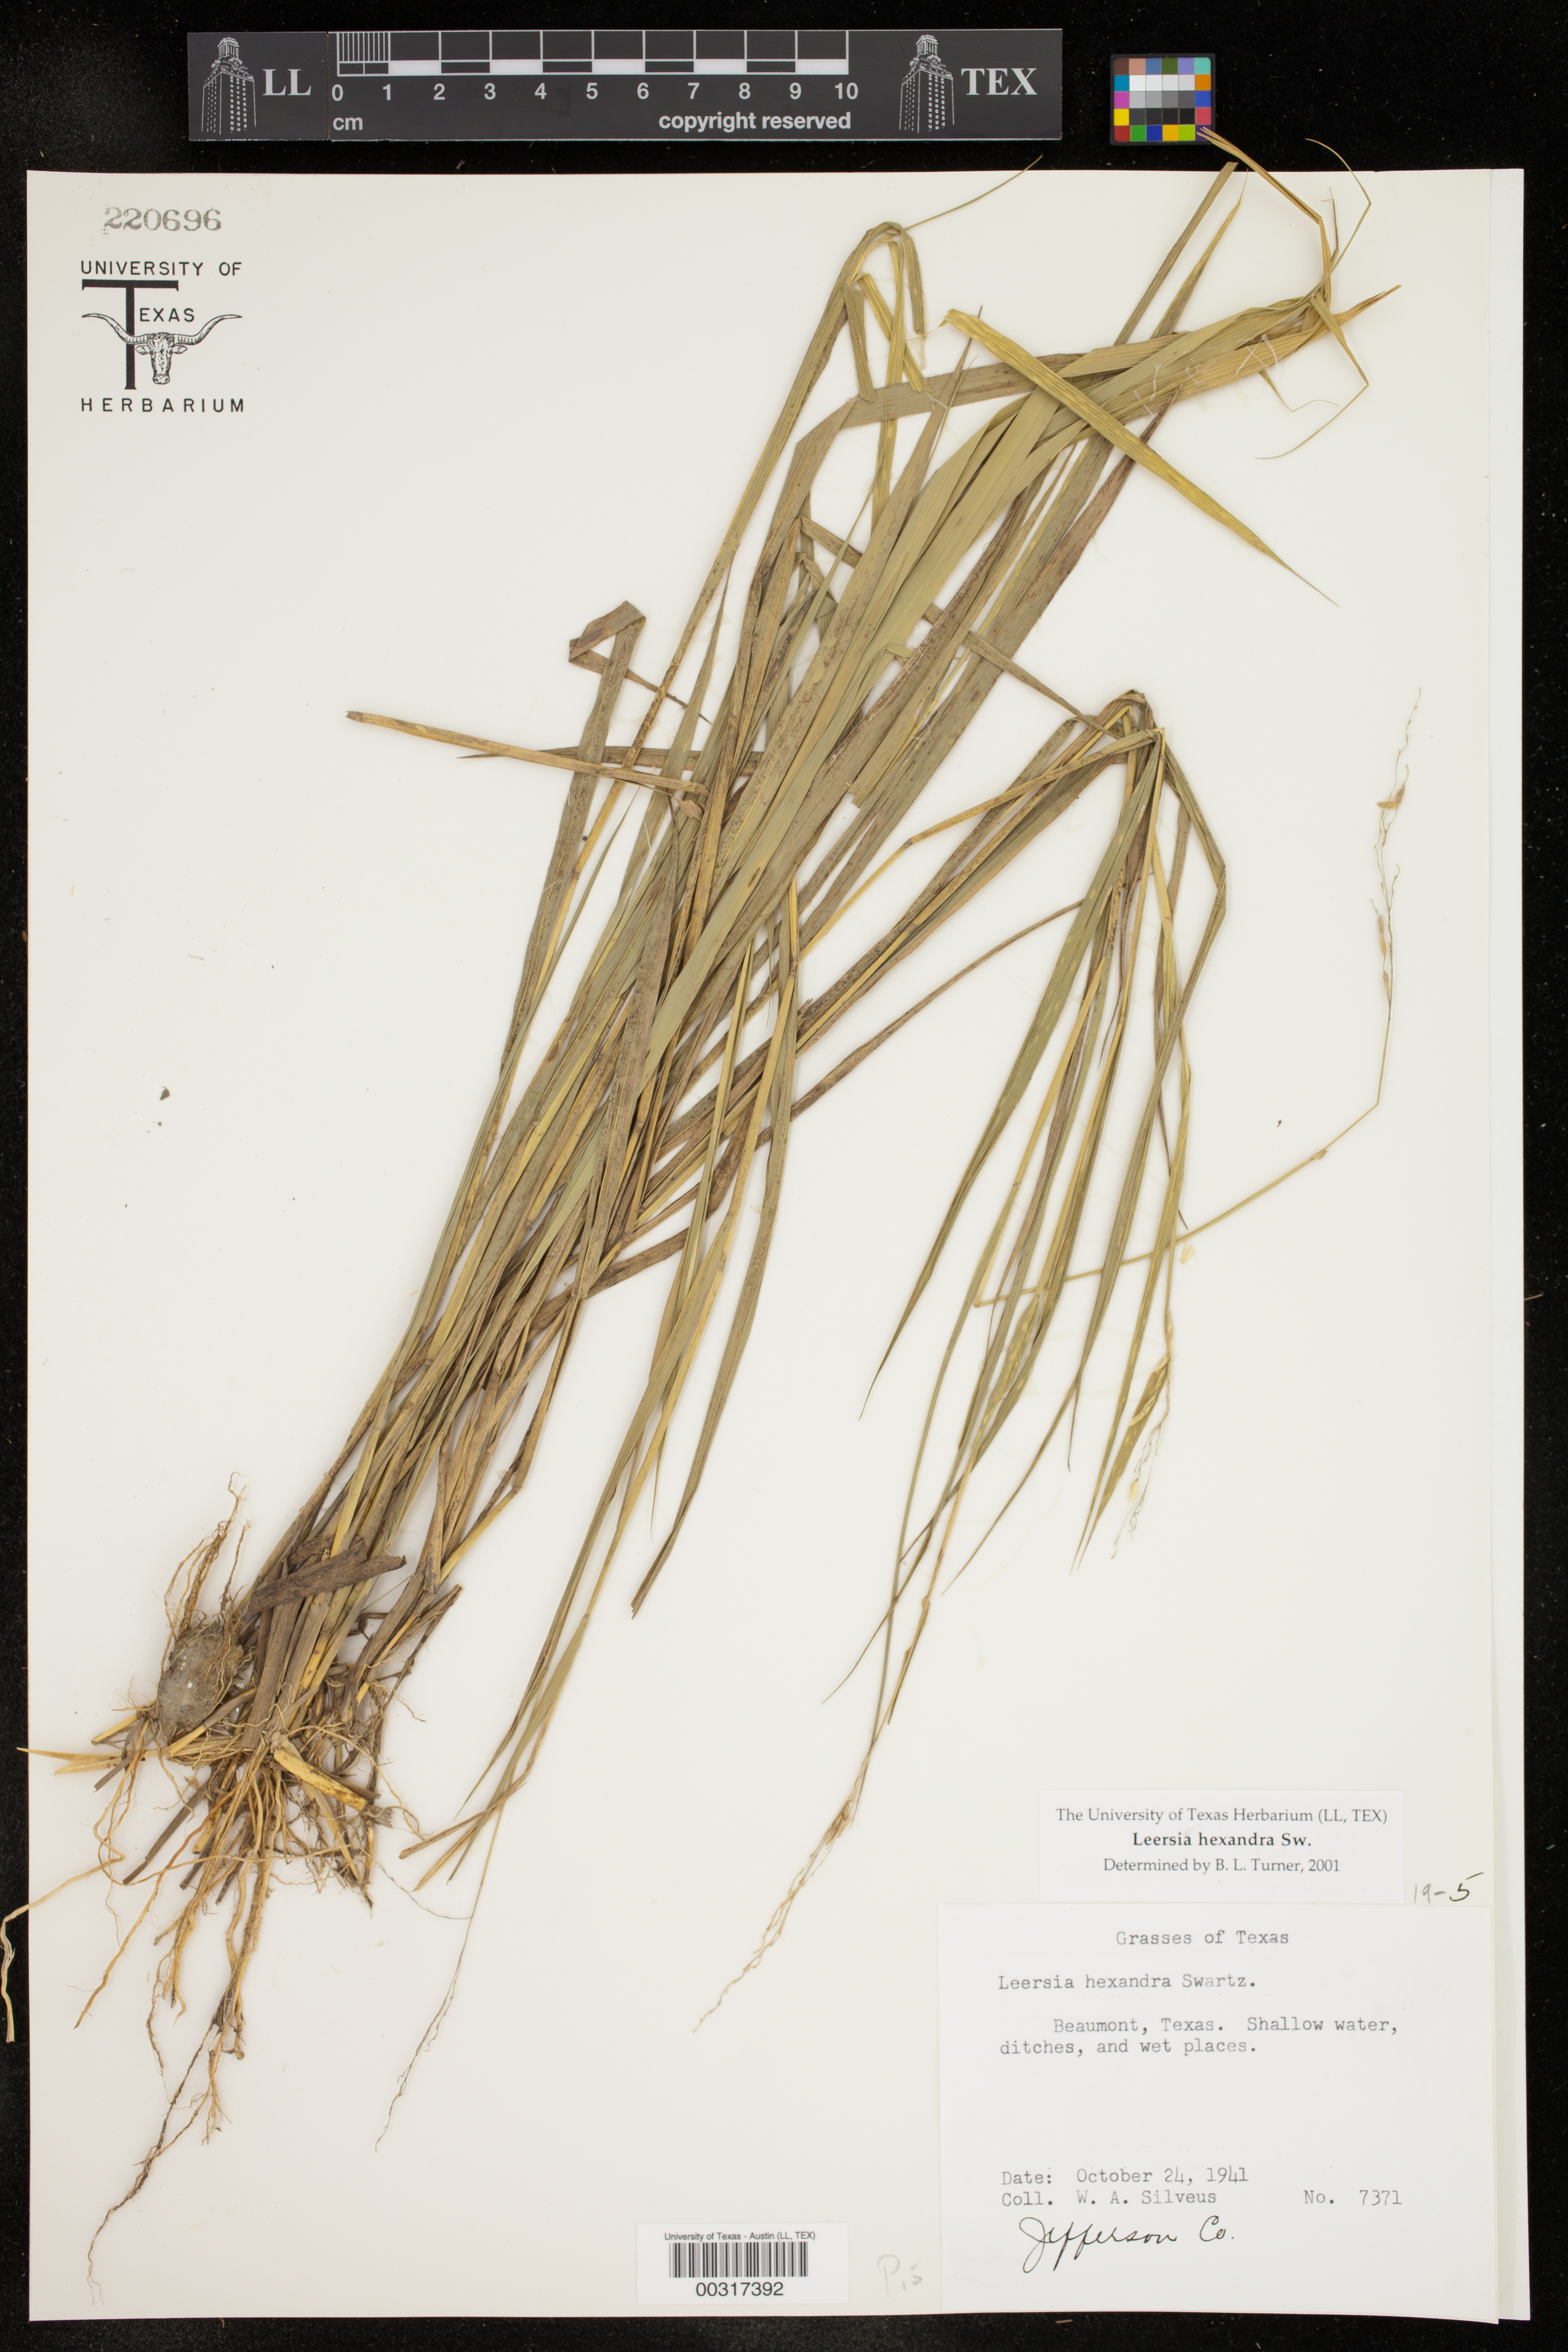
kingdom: Plantae
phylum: Tracheophyta
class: Liliopsida
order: Poales
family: Poaceae
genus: Leersia
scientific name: Leersia hexandra
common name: Southern cut grass
